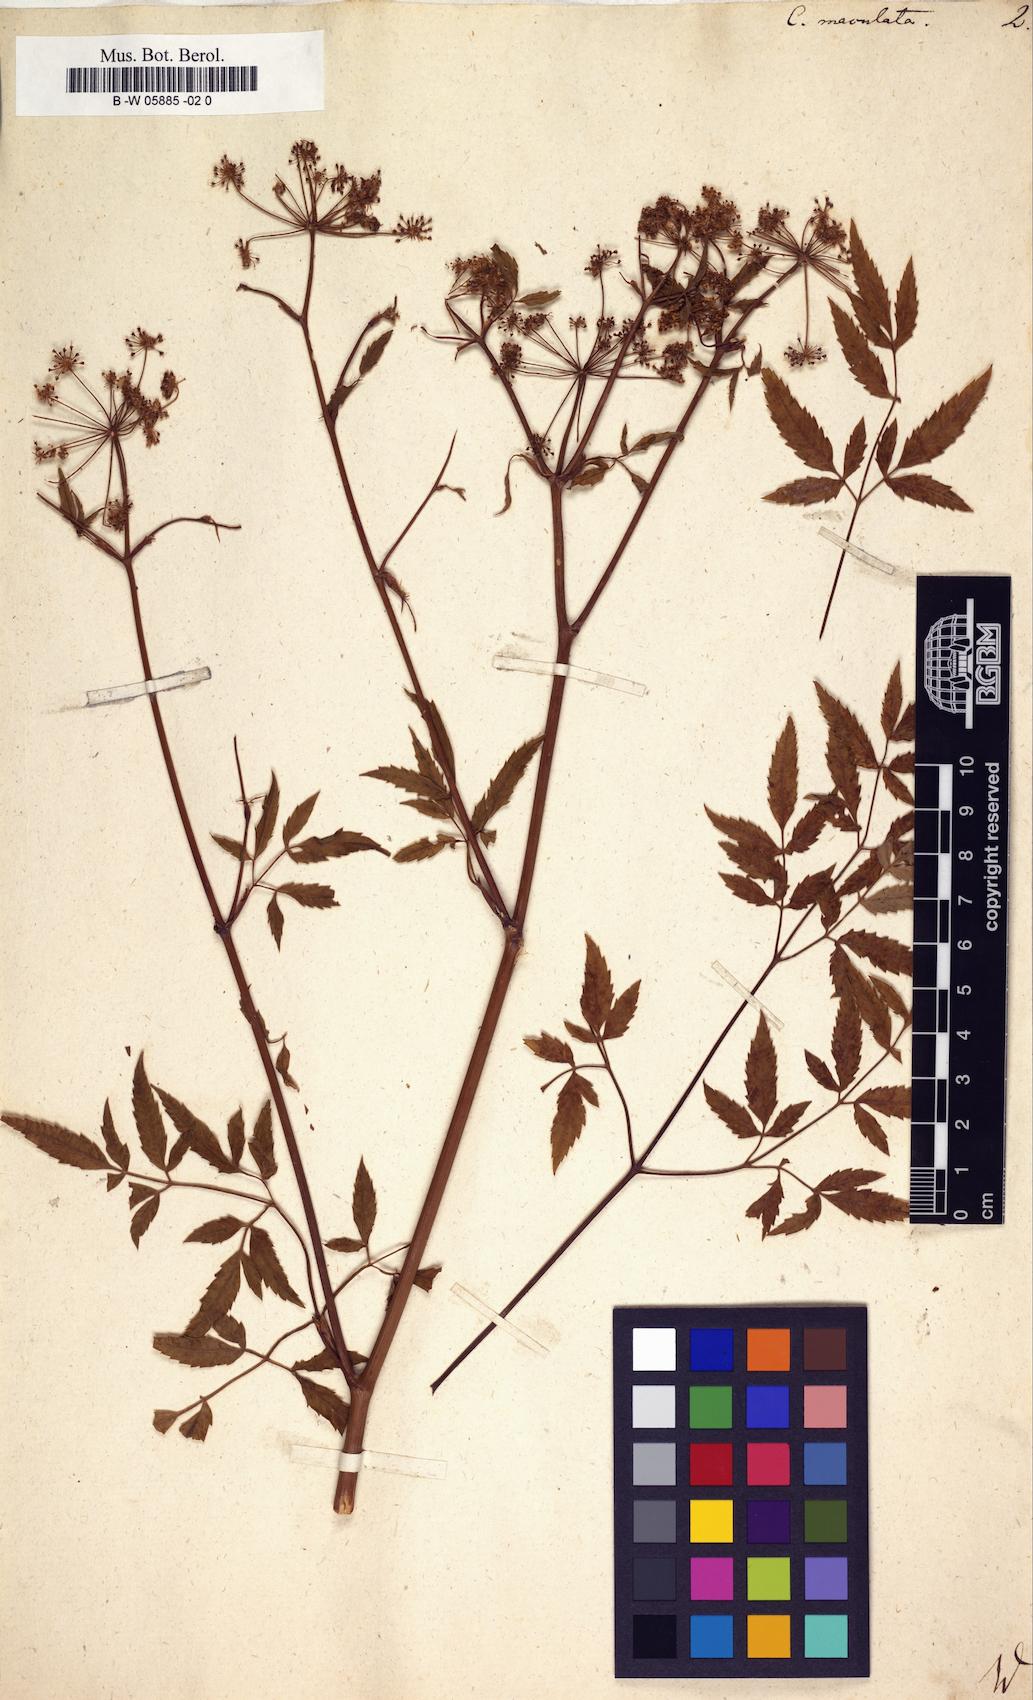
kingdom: Plantae
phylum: Tracheophyta
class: Magnoliopsida
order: Apiales
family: Apiaceae
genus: Cicuta
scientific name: Cicuta maculata
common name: Spotted cowbane
